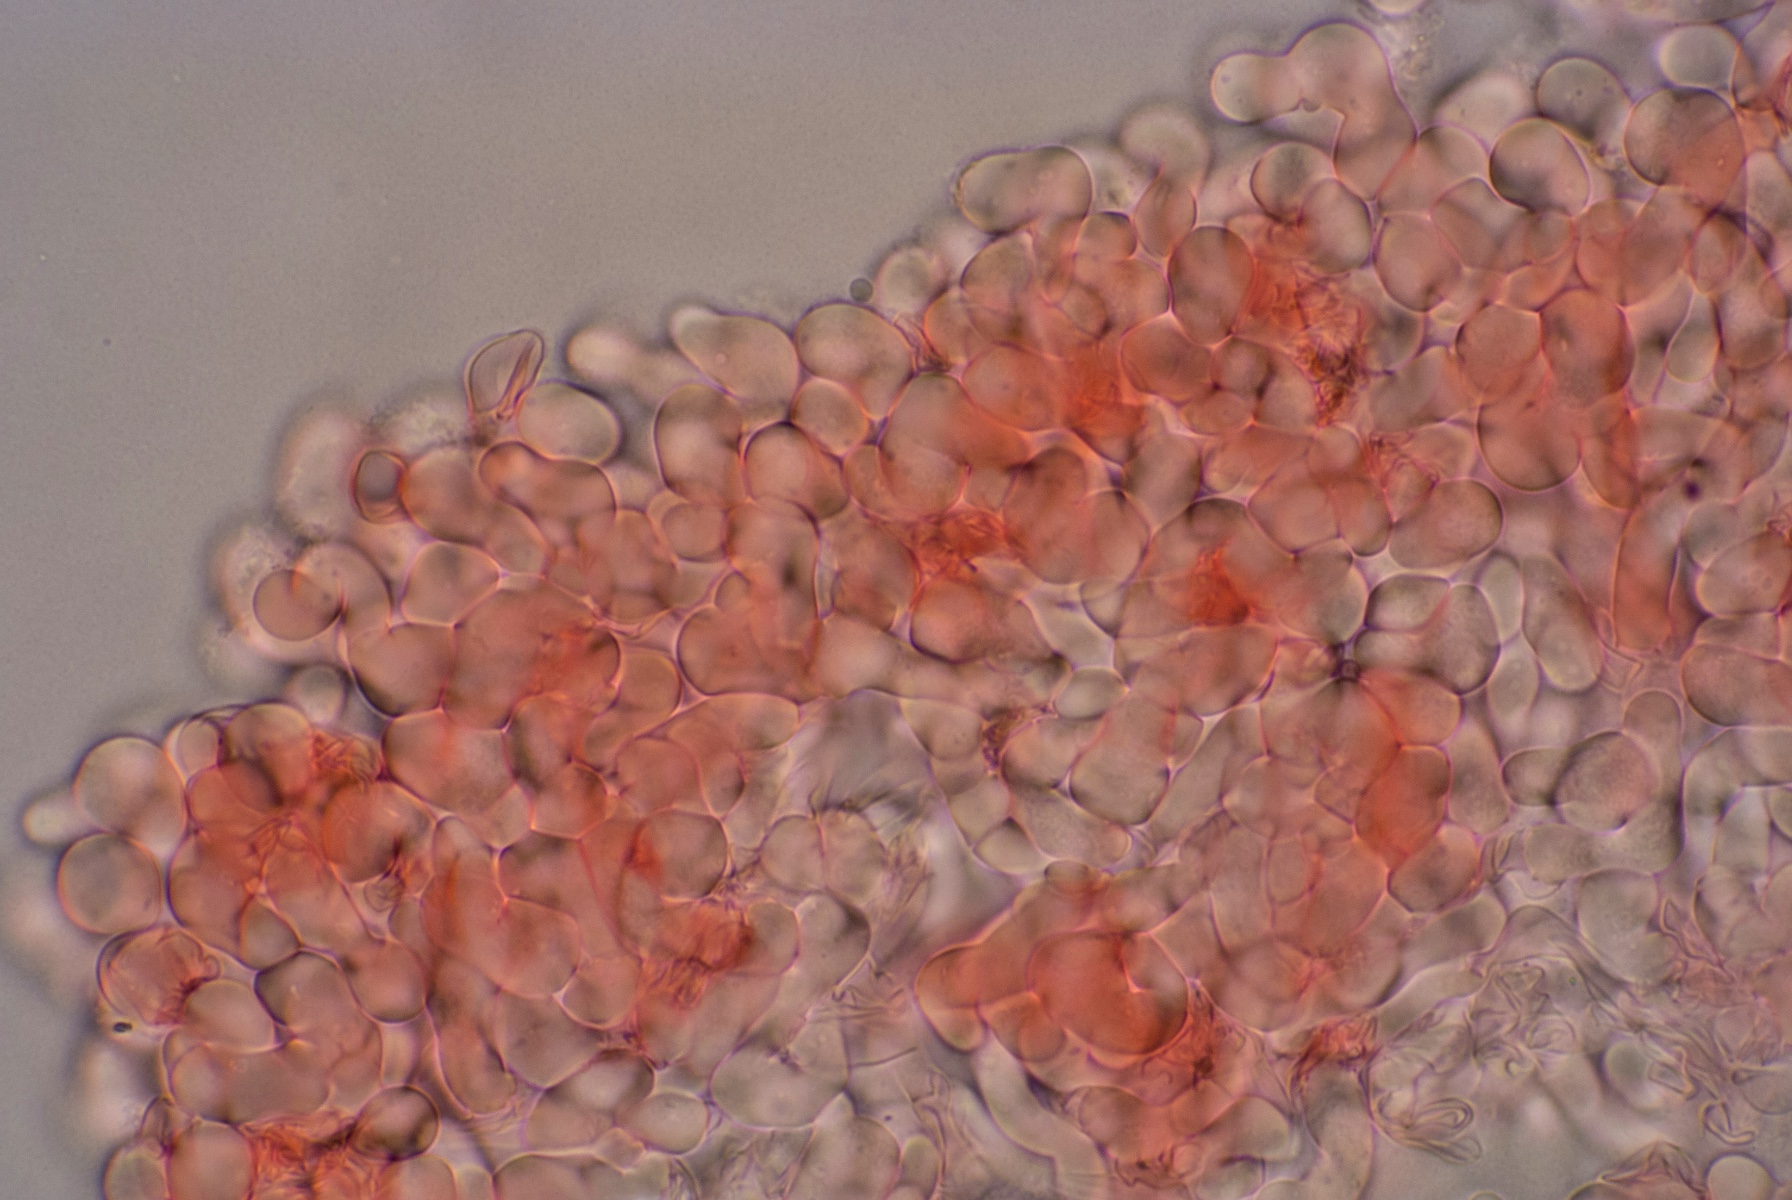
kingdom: Fungi
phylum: Basidiomycota
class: Agaricomycetes
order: Corticiales
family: Corticiaceae
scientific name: Corticiaceae
